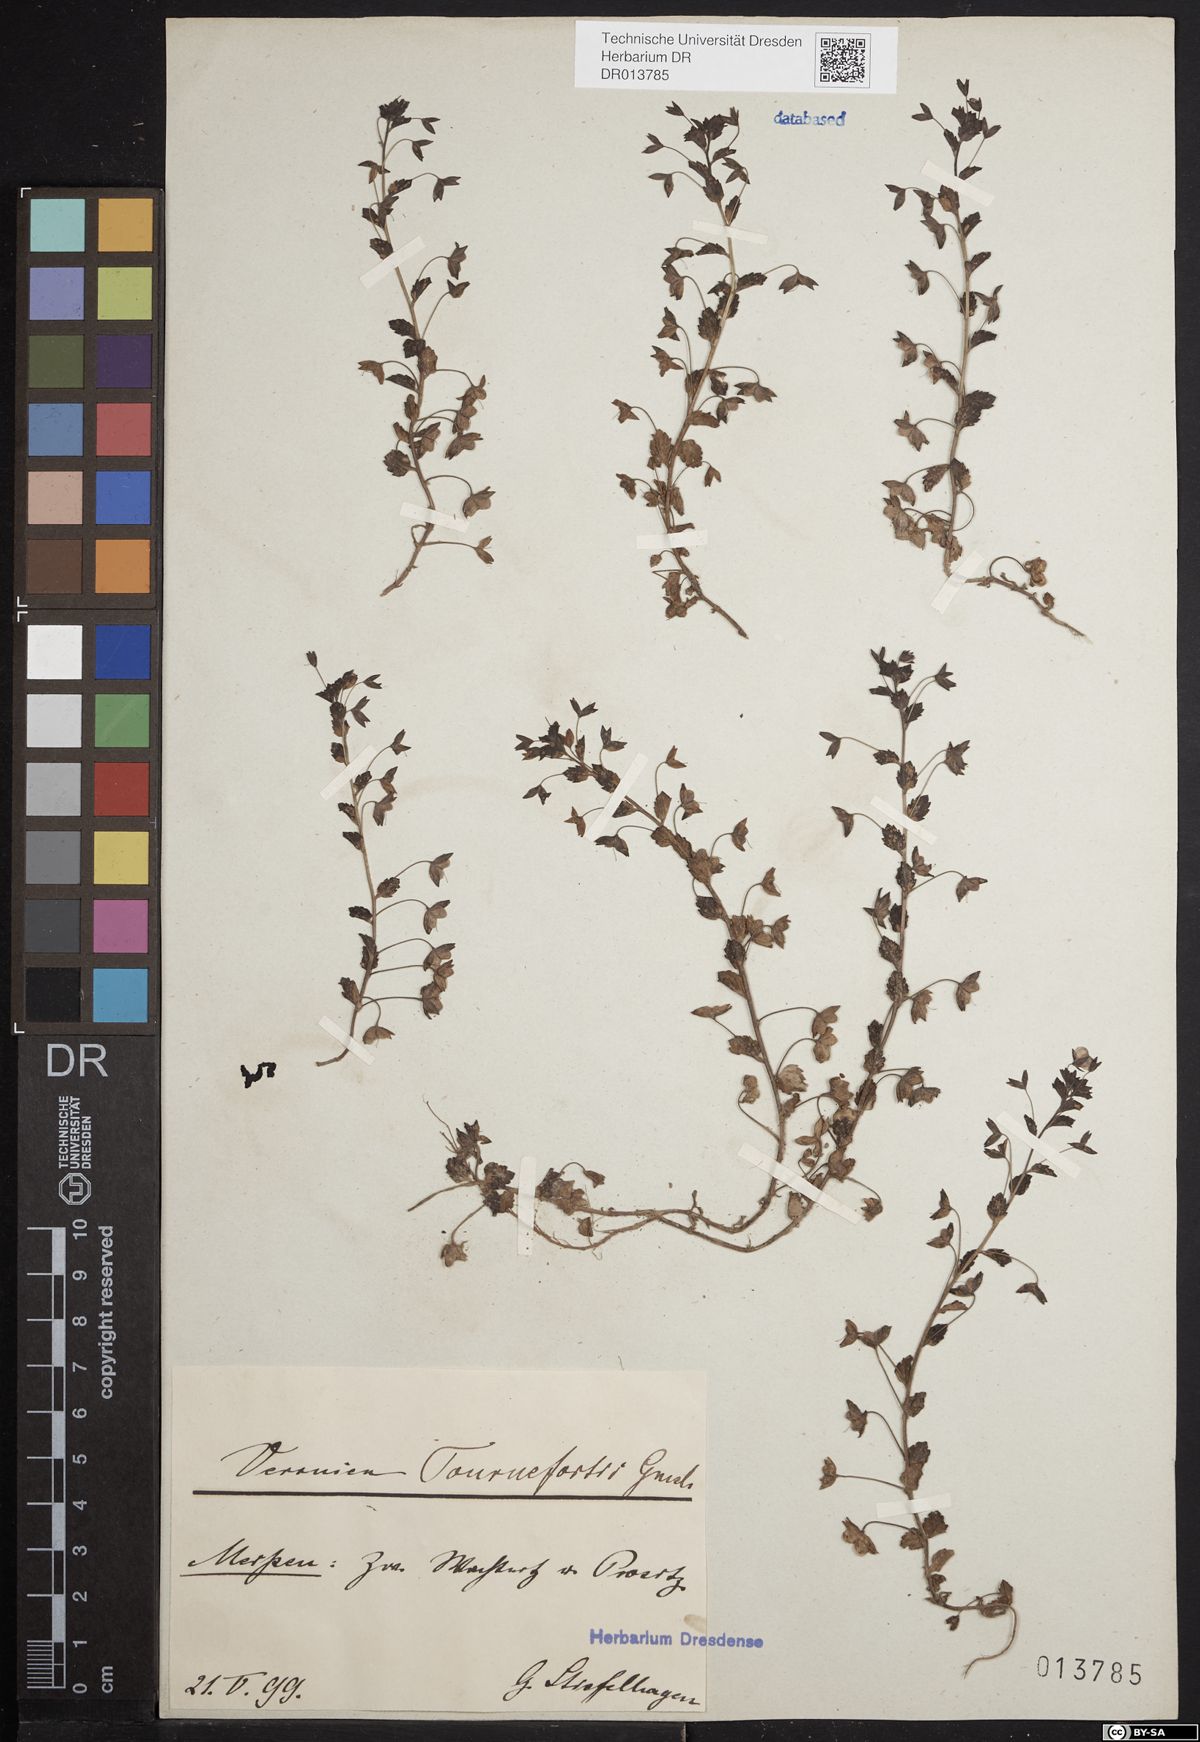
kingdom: Plantae
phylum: Tracheophyta
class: Magnoliopsida
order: Lamiales
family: Plantaginaceae
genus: Veronica
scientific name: Veronica persica
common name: Common field-speedwell
